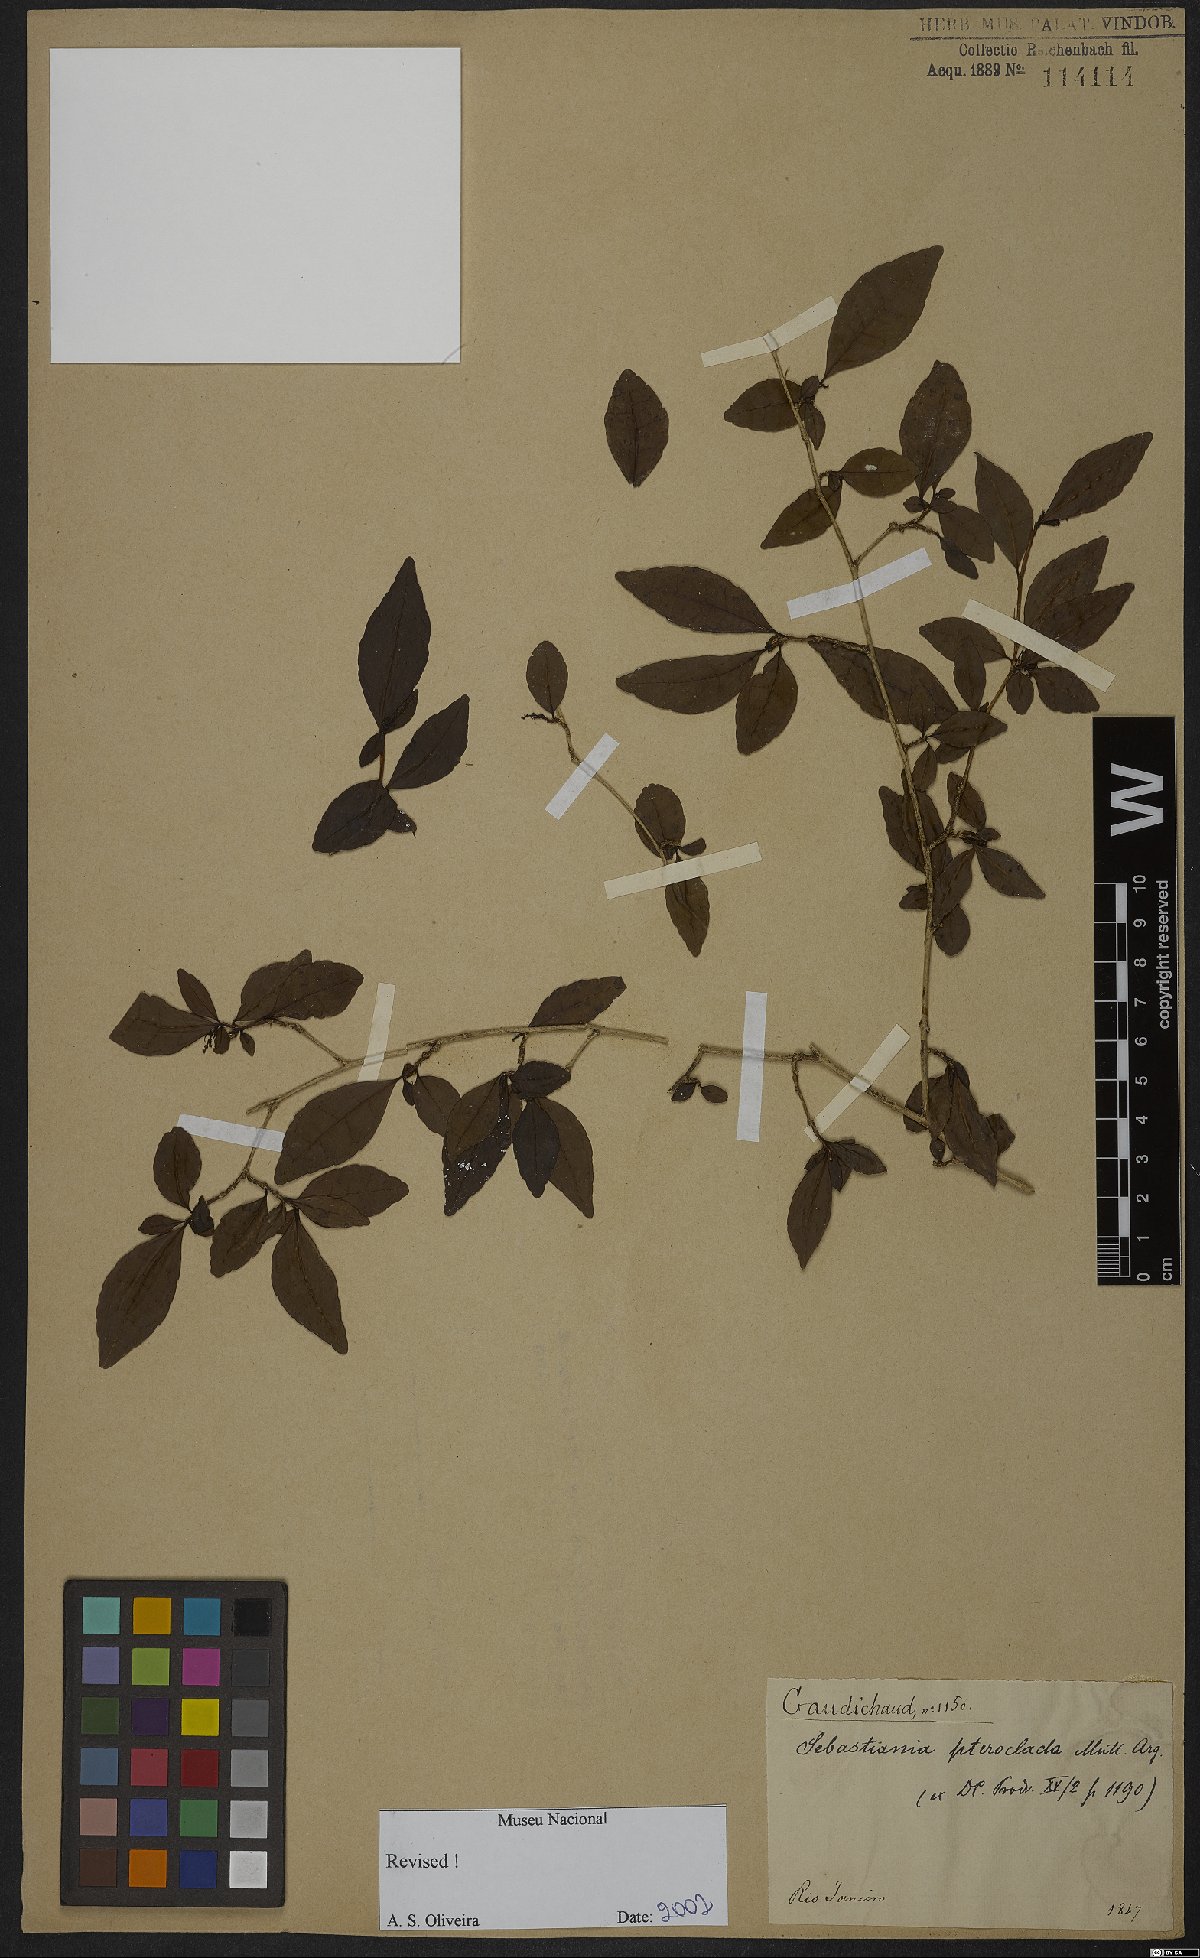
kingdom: Plantae
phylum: Tracheophyta
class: Magnoliopsida
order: Malpighiales
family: Euphorbiaceae
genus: Sebastiania
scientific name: Sebastiania pteroclada
